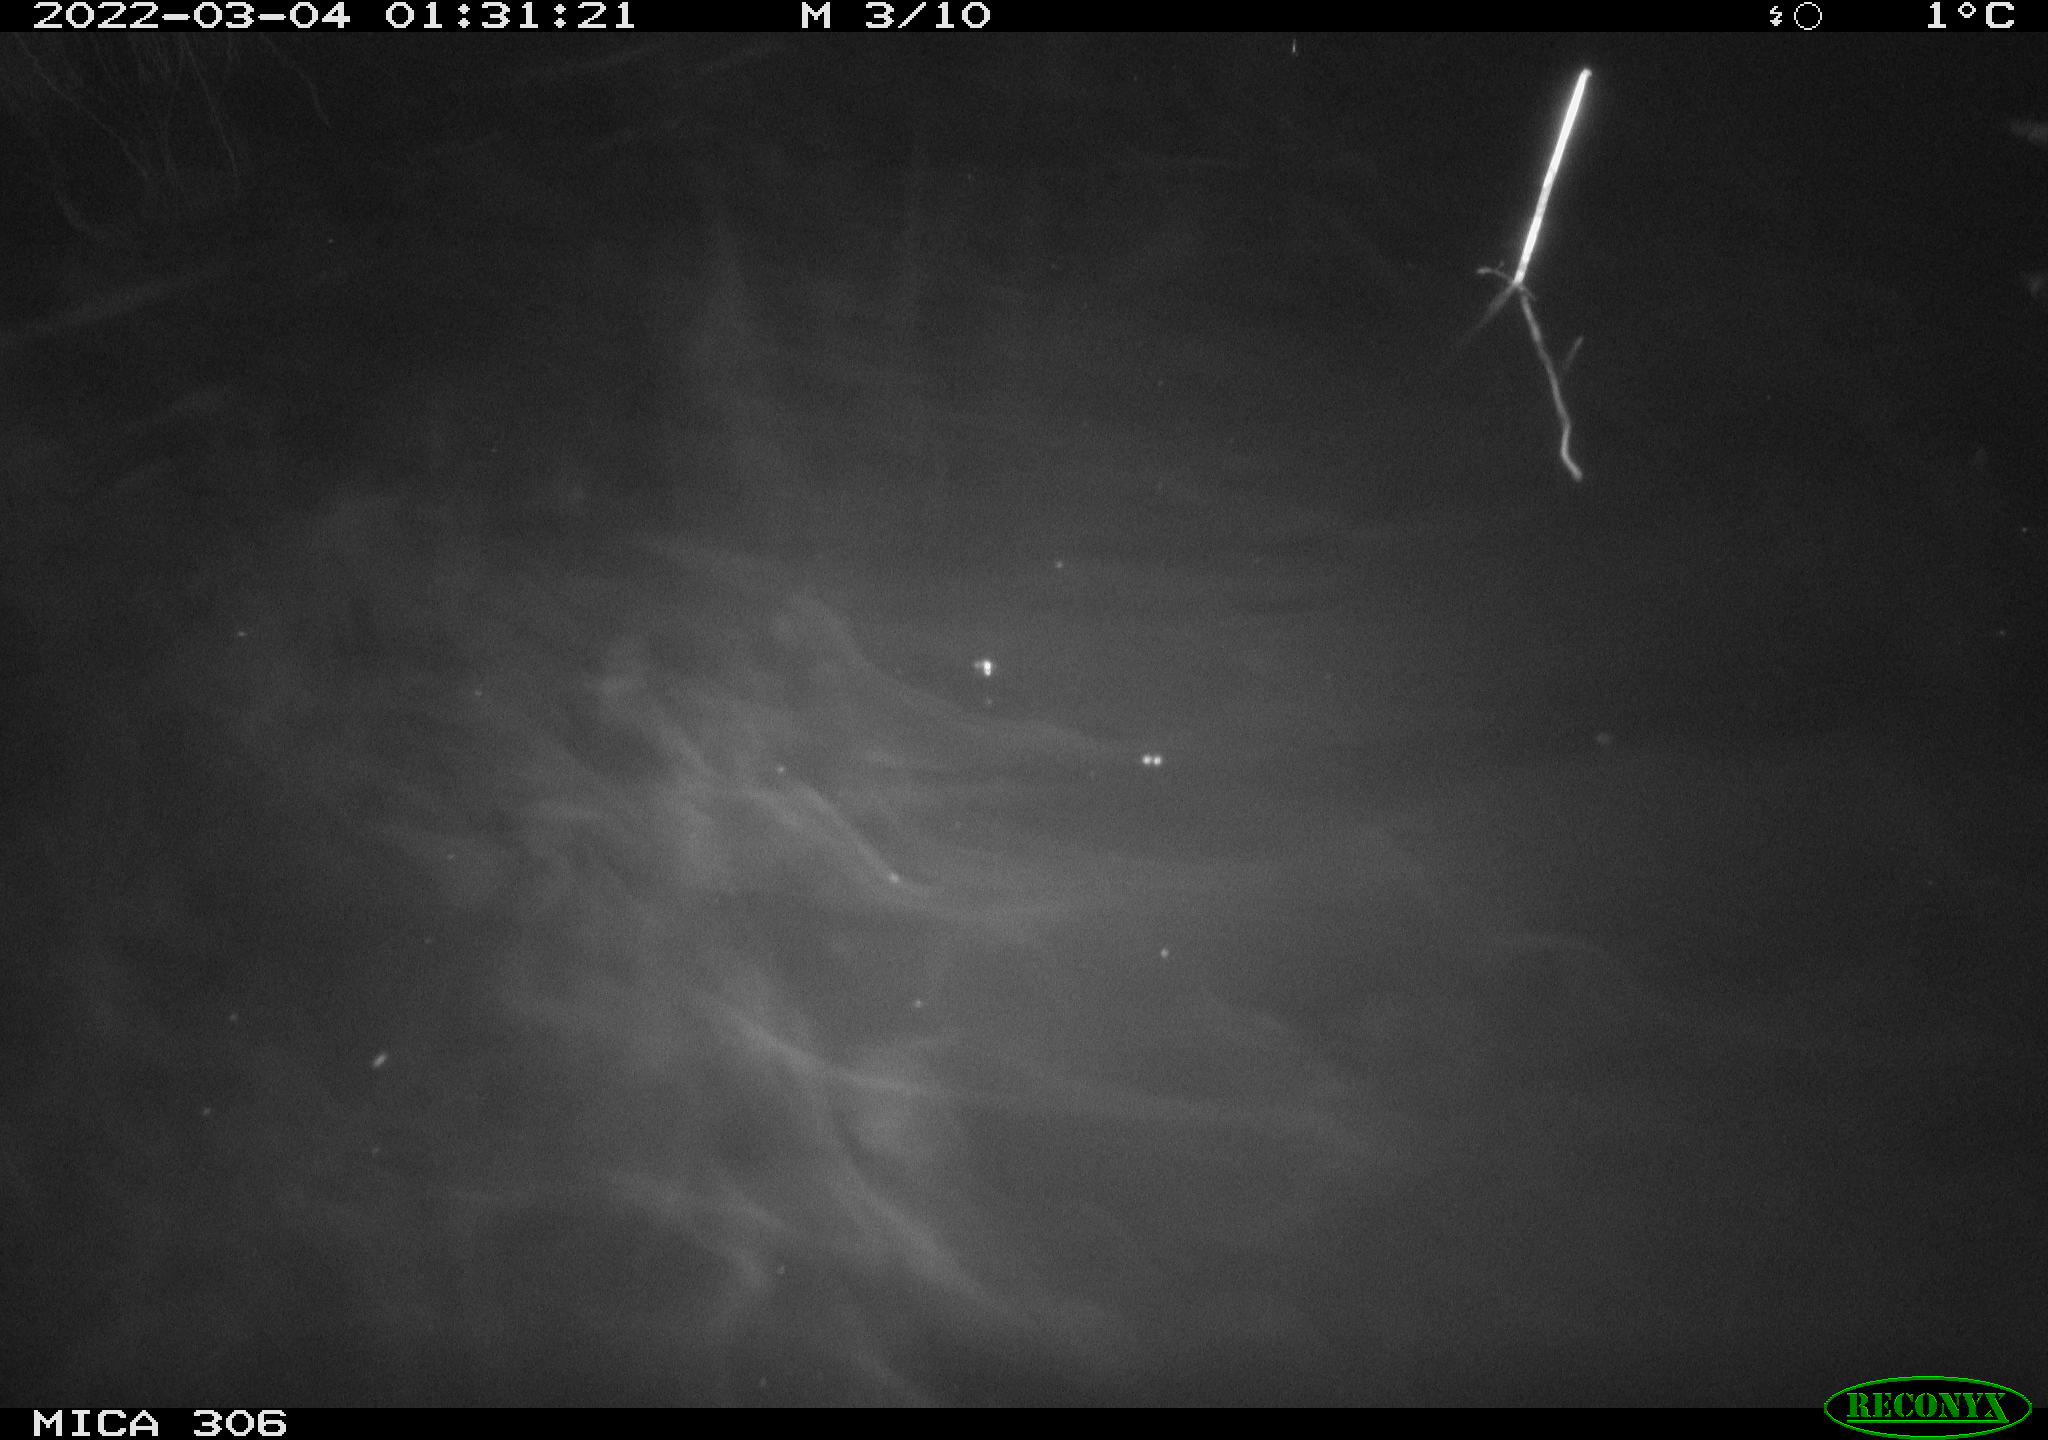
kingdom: Animalia
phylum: Chordata
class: Mammalia
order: Rodentia
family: Cricetidae
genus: Ondatra
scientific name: Ondatra zibethicus
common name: Muskrat
